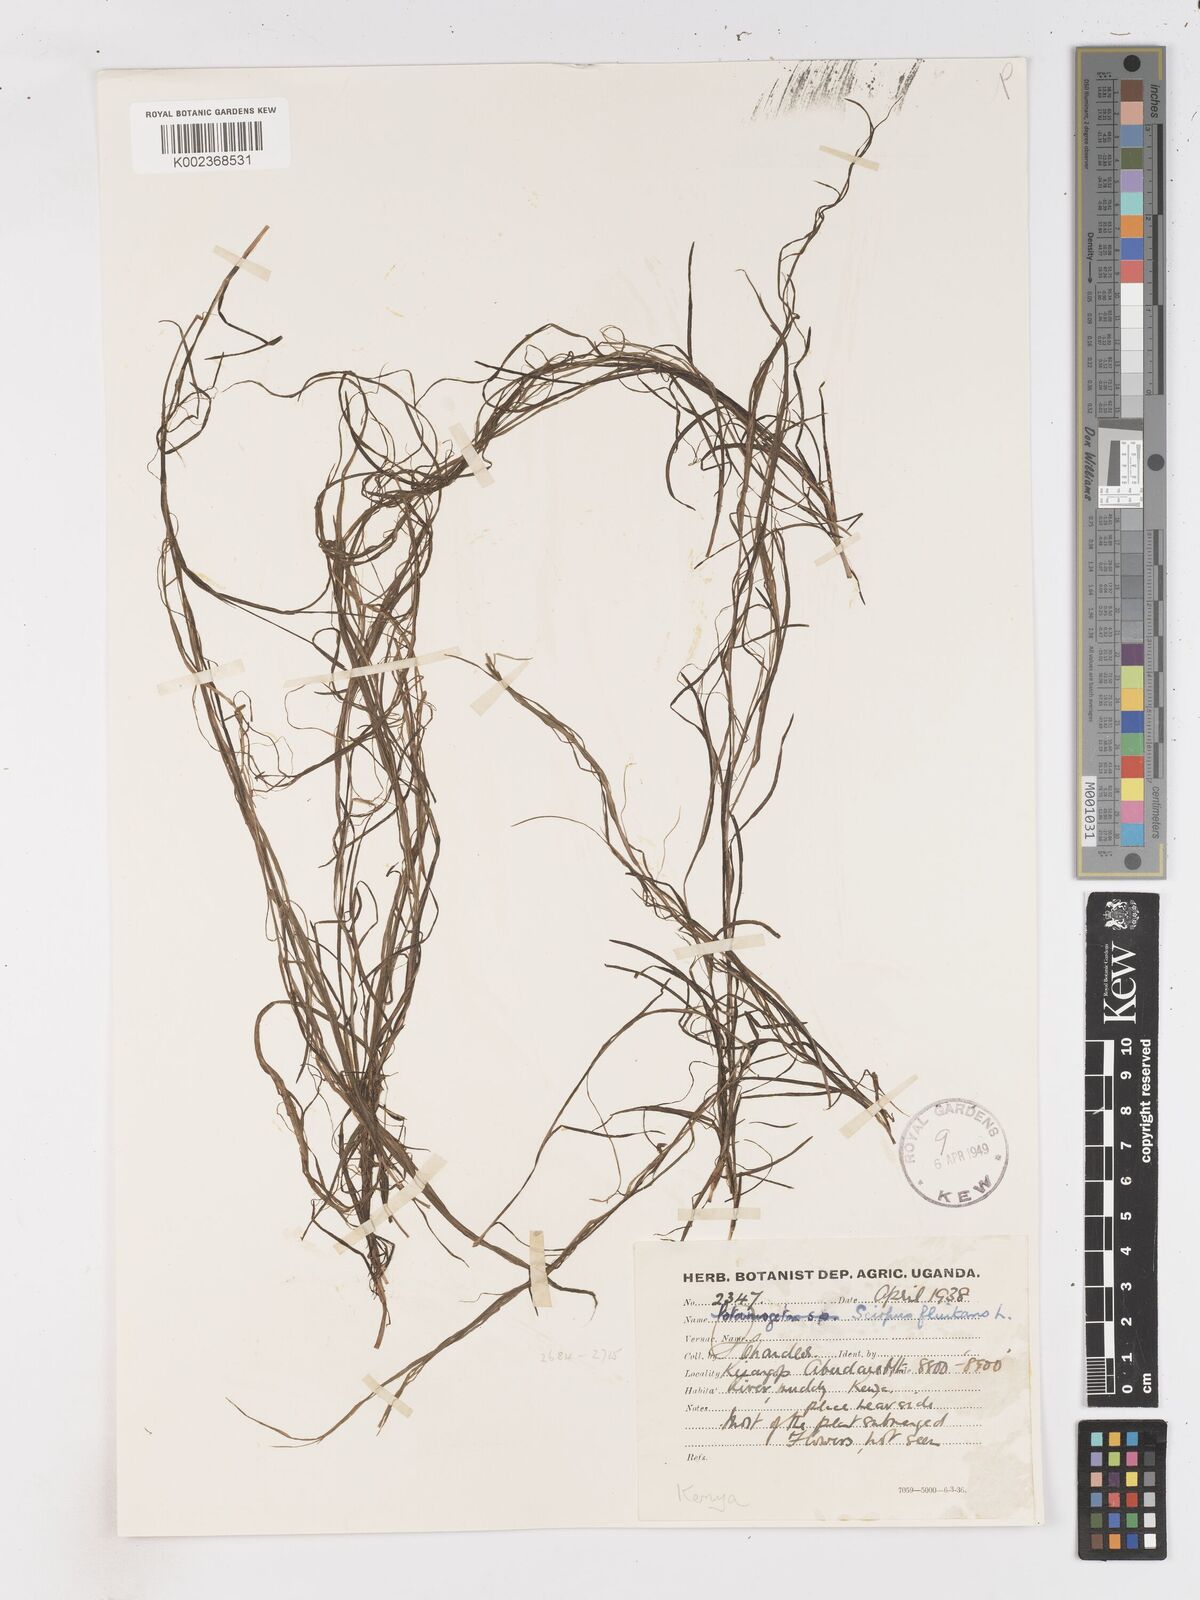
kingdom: Plantae
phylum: Tracheophyta
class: Liliopsida
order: Poales
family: Cyperaceae
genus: Isolepis
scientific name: Isolepis fluitans
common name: Floating club-rush
